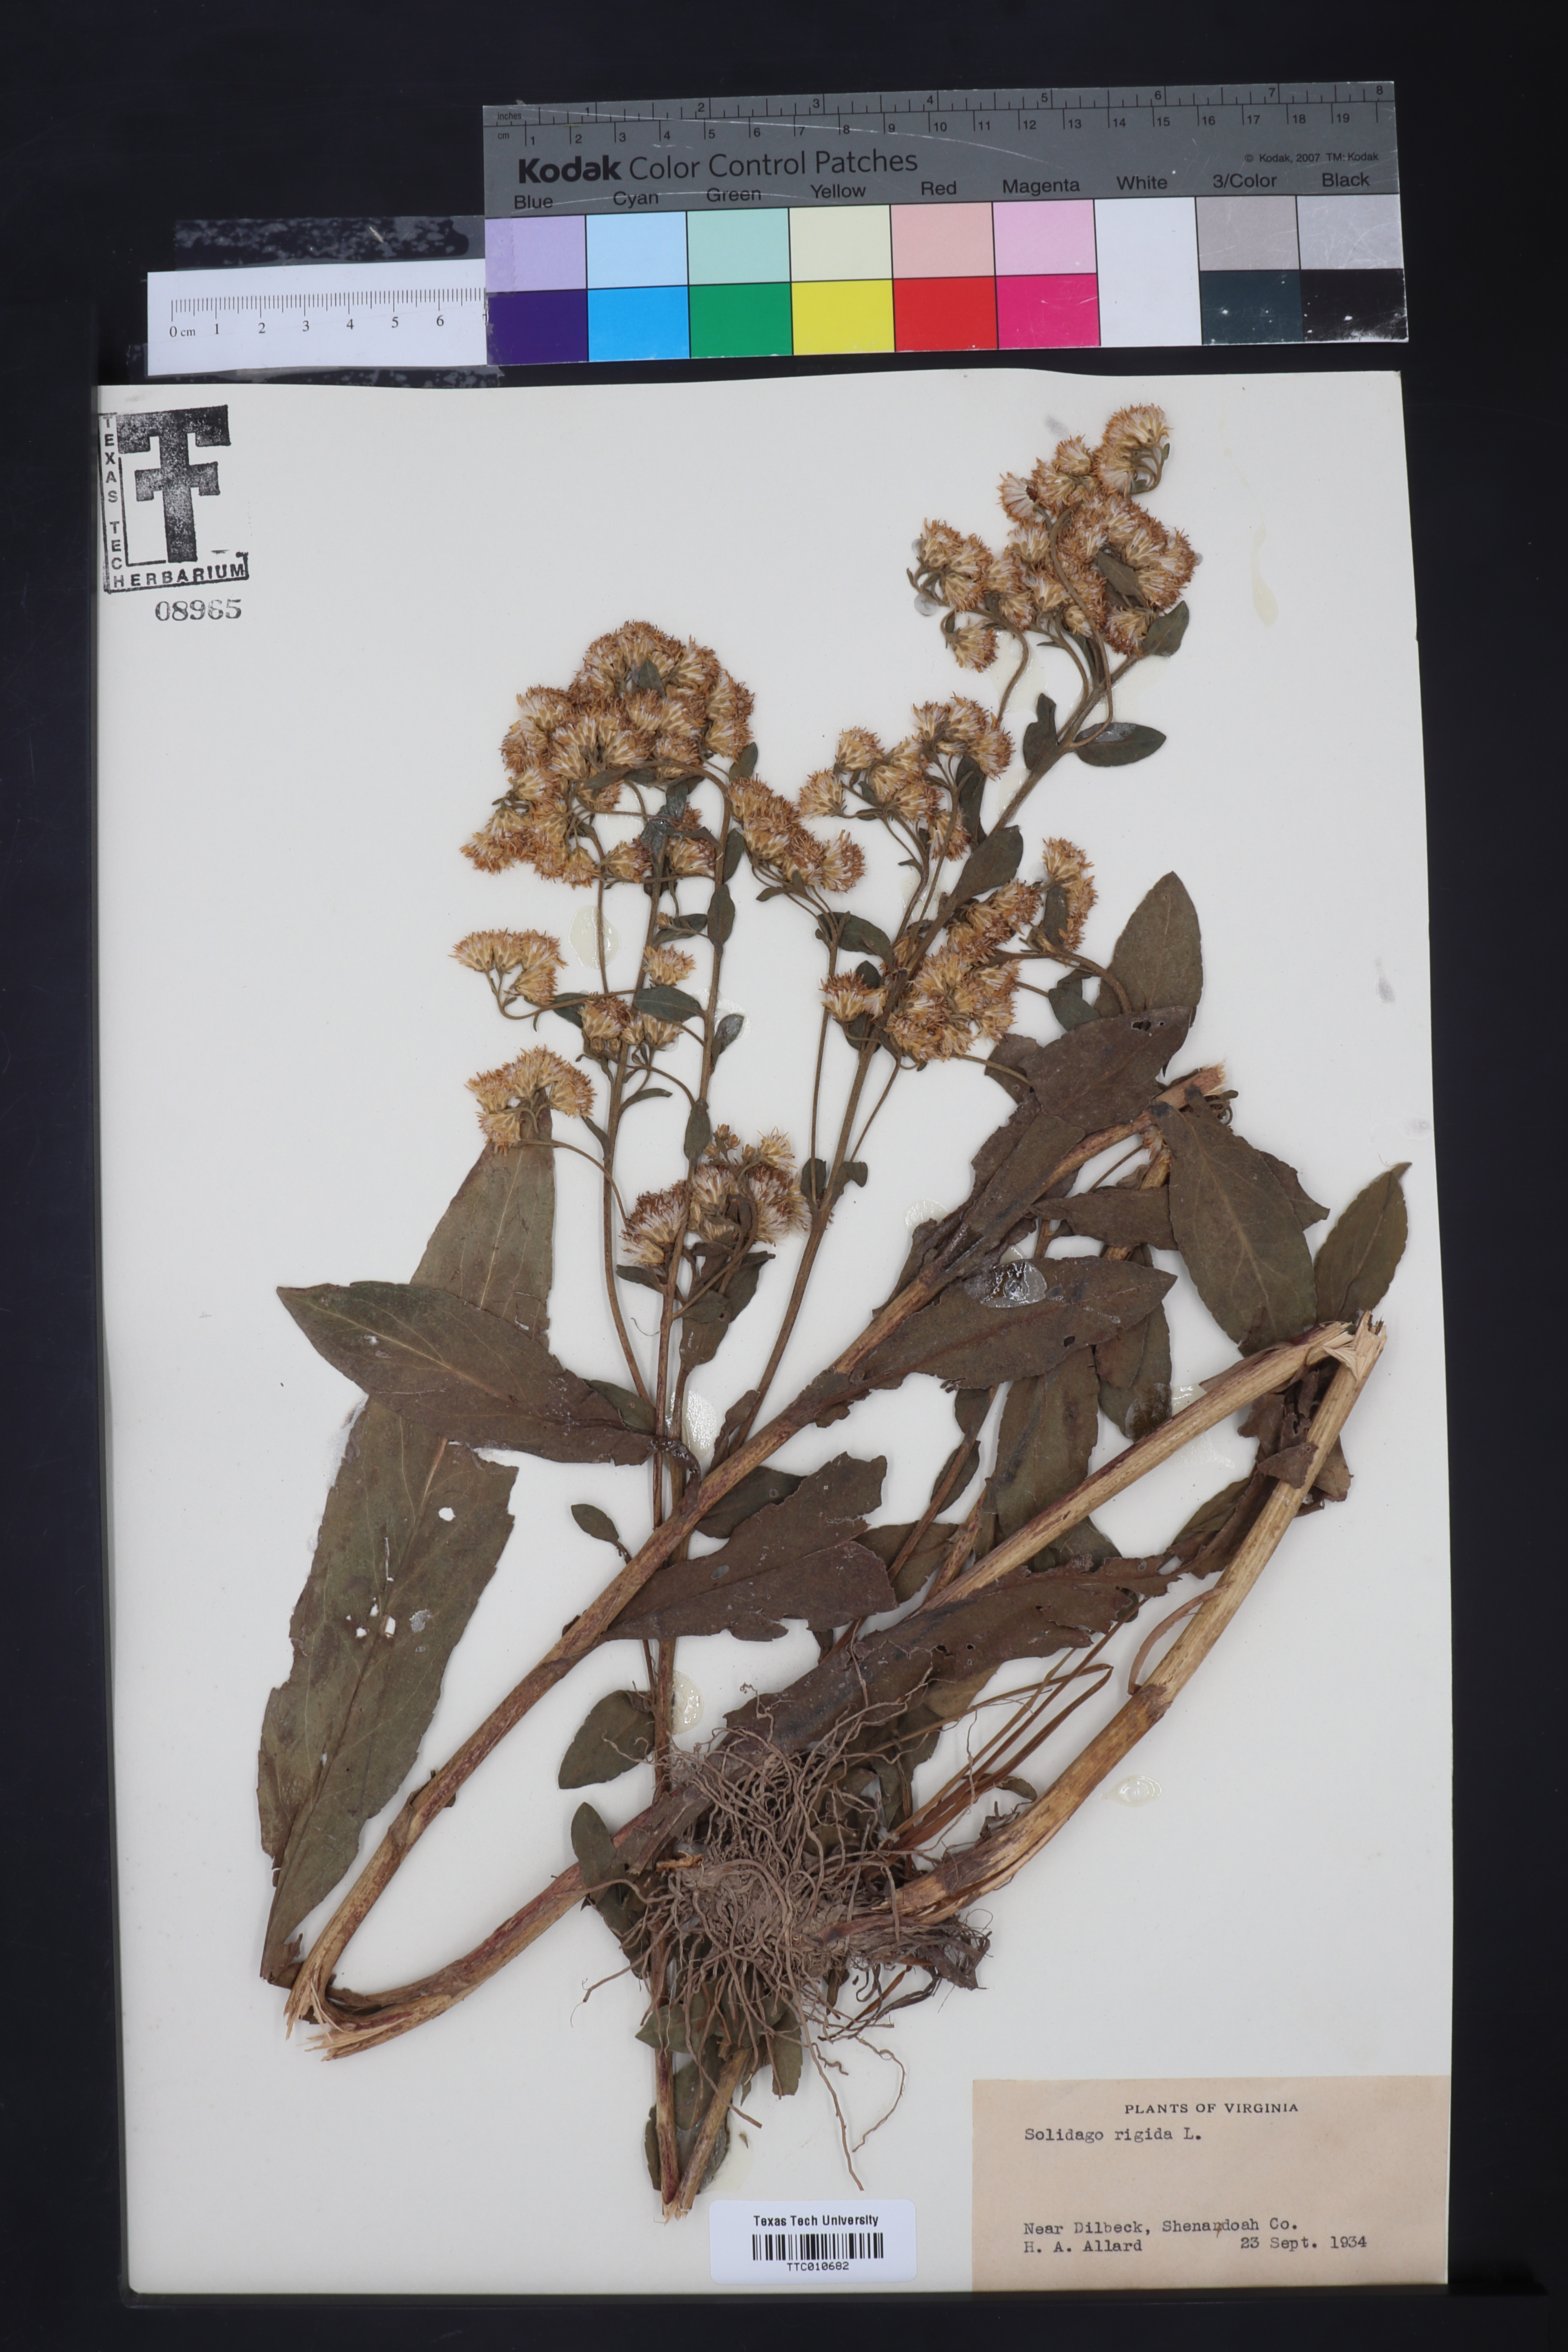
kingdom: Plantae
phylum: Tracheophyta
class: Magnoliopsida
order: Asterales
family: Asteraceae
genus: Solidago
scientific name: Solidago rigida
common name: Rigid goldenrod
